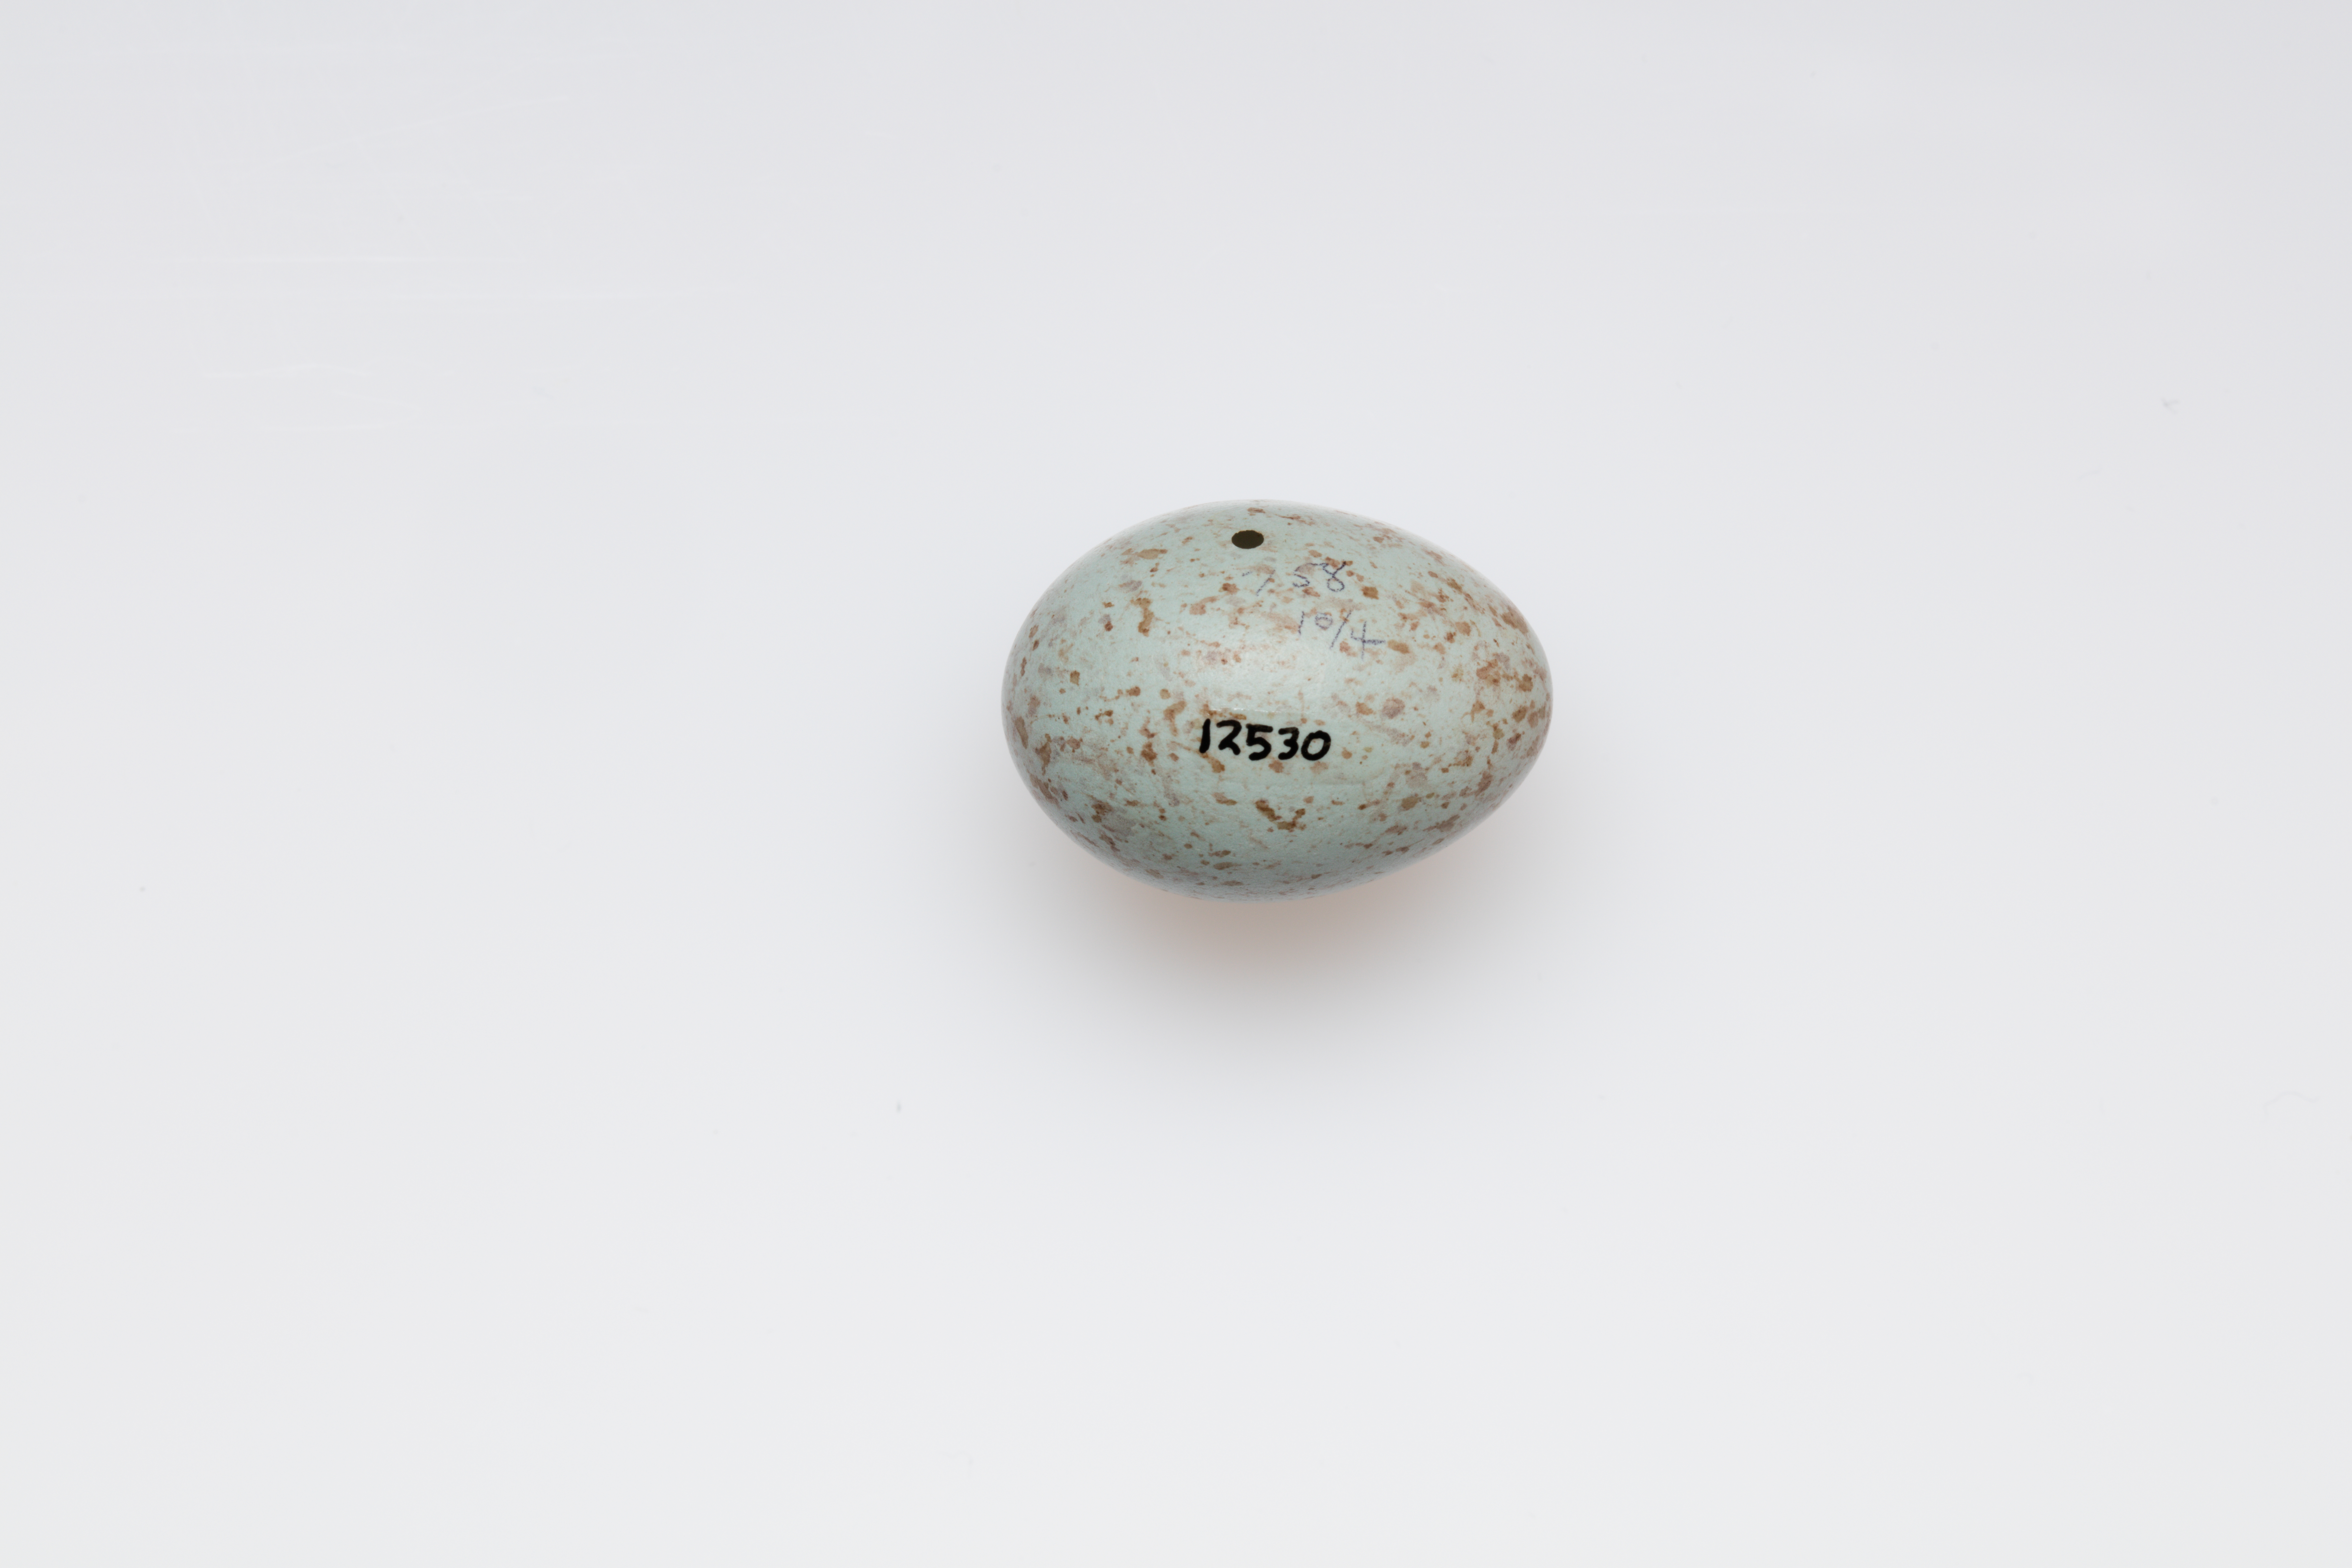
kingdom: Animalia
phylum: Chordata
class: Aves
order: Passeriformes
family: Turdidae
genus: Catharus
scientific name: Catharus ustulatus
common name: Swainson's thrush
